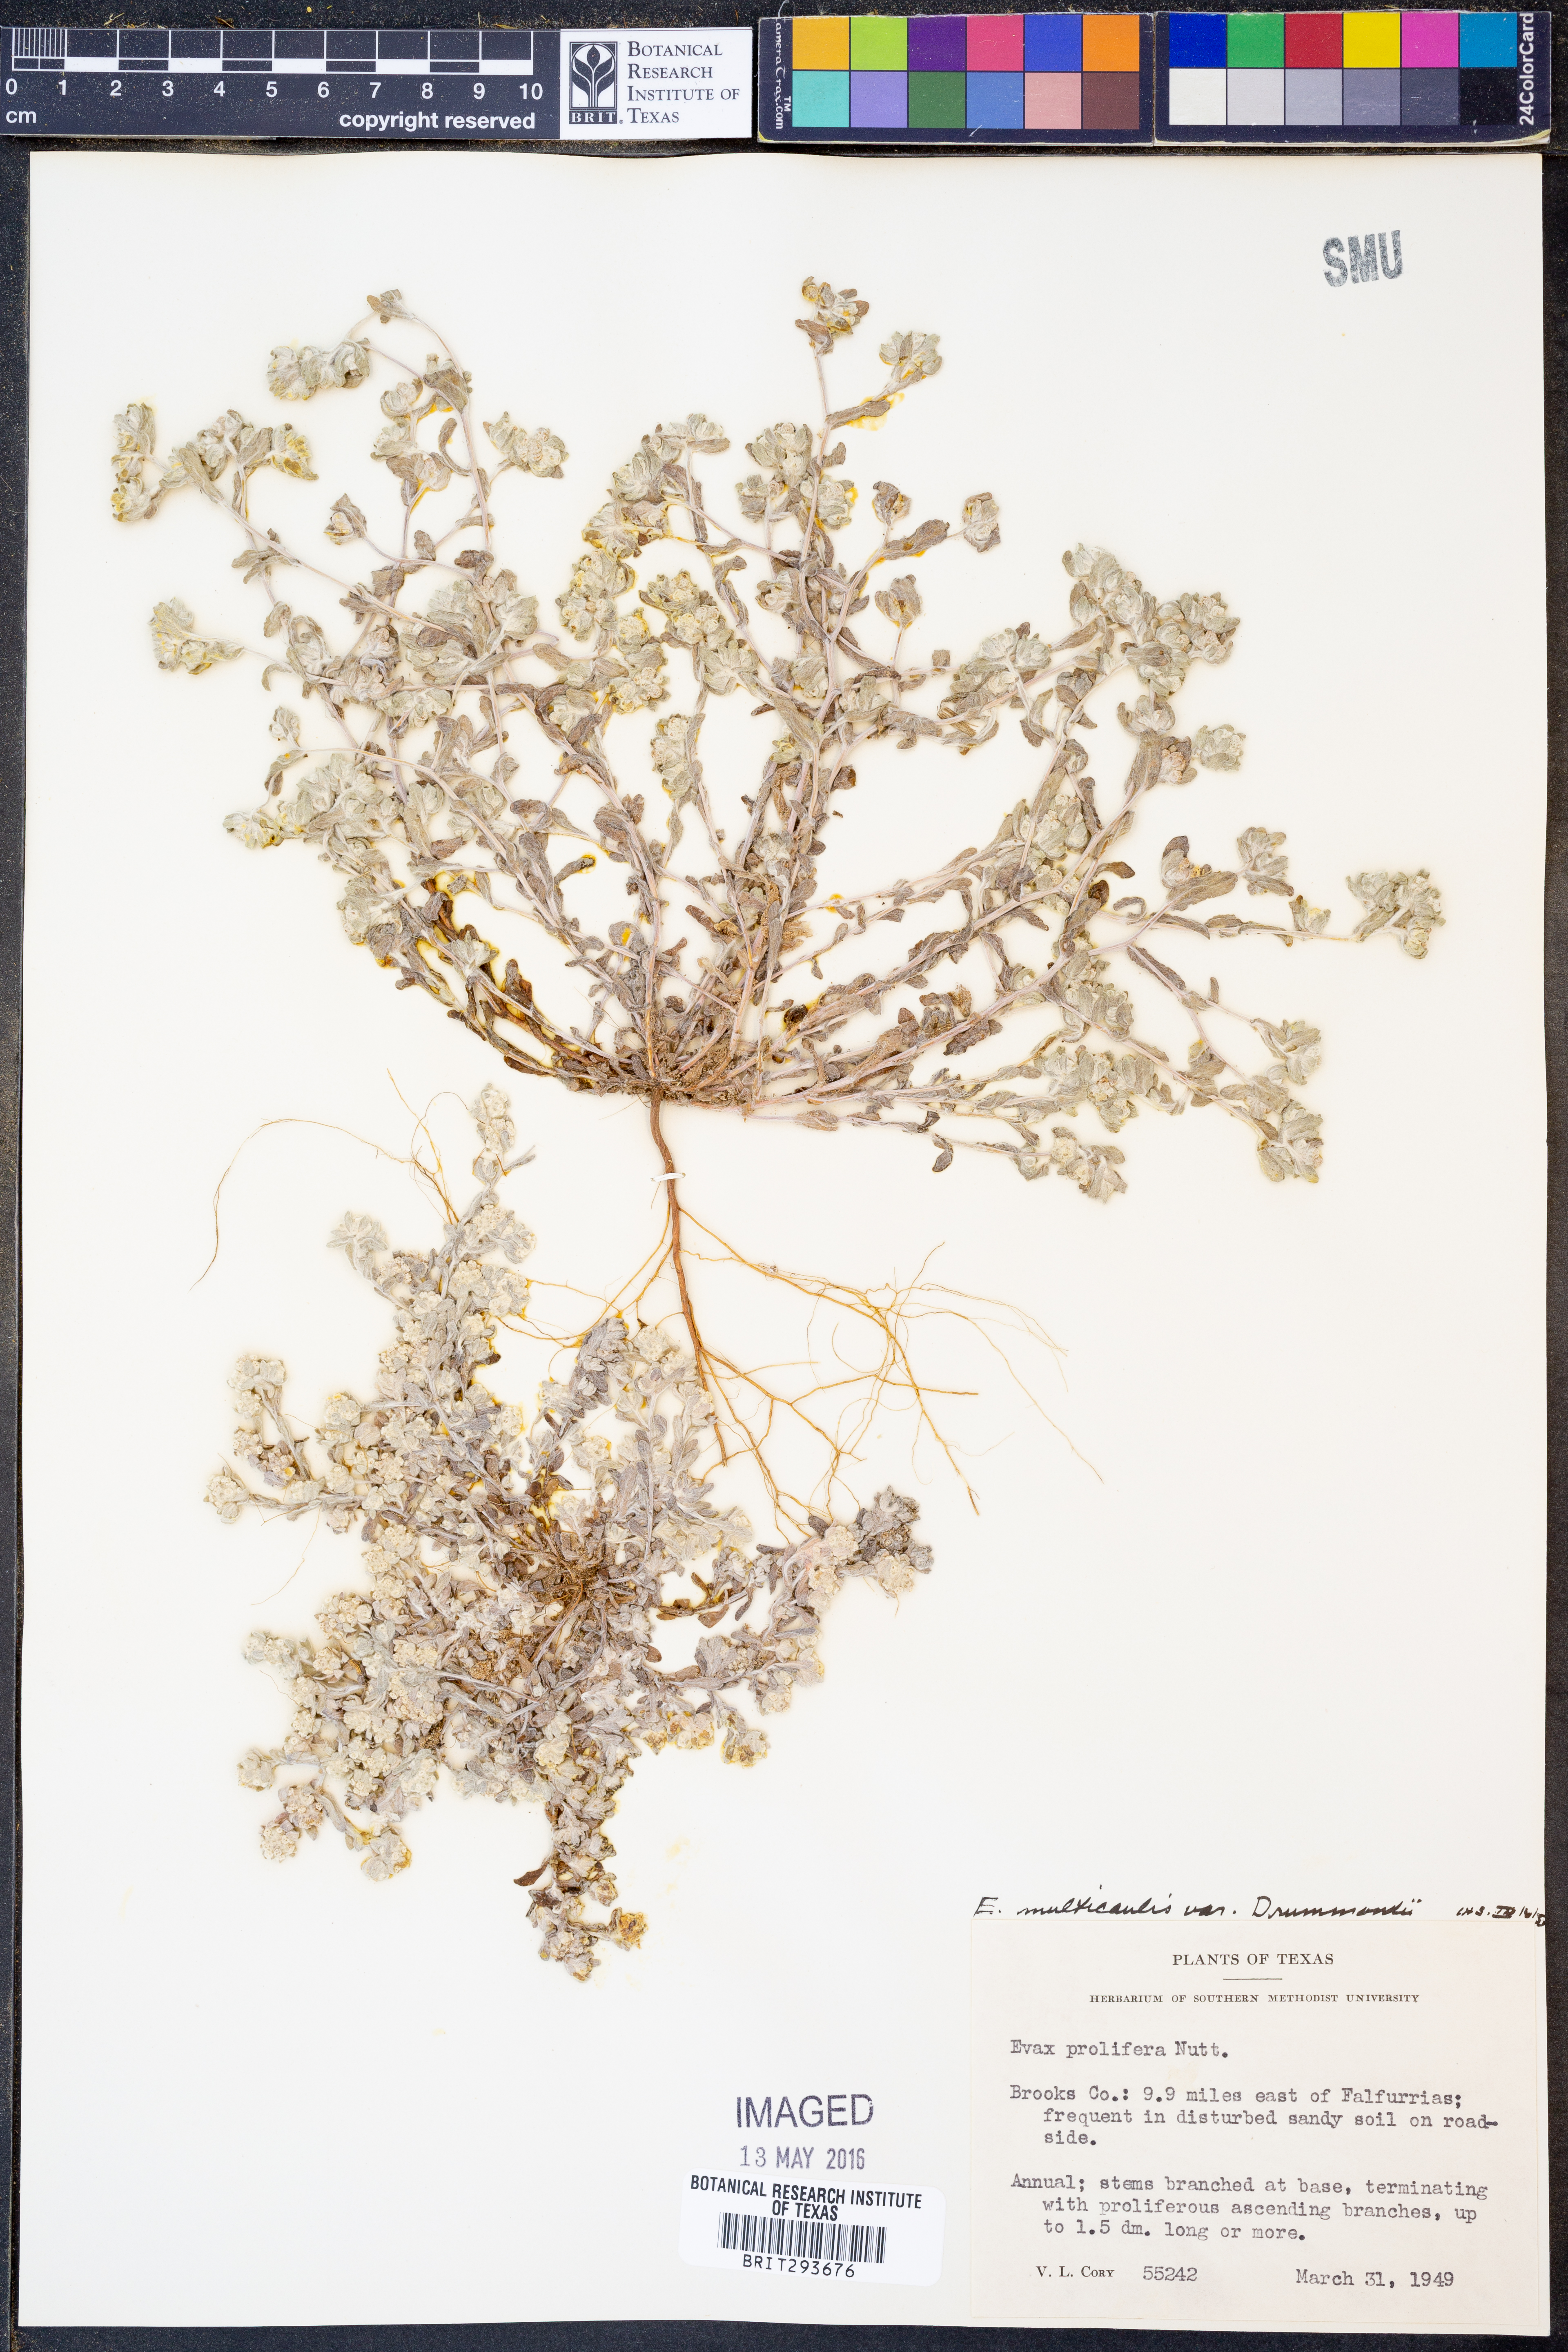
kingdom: Plantae
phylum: Tracheophyta
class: Magnoliopsida
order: Asterales
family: Asteraceae
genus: Diaperia
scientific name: Diaperia verna
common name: Many-stem rabbit-tobacco
